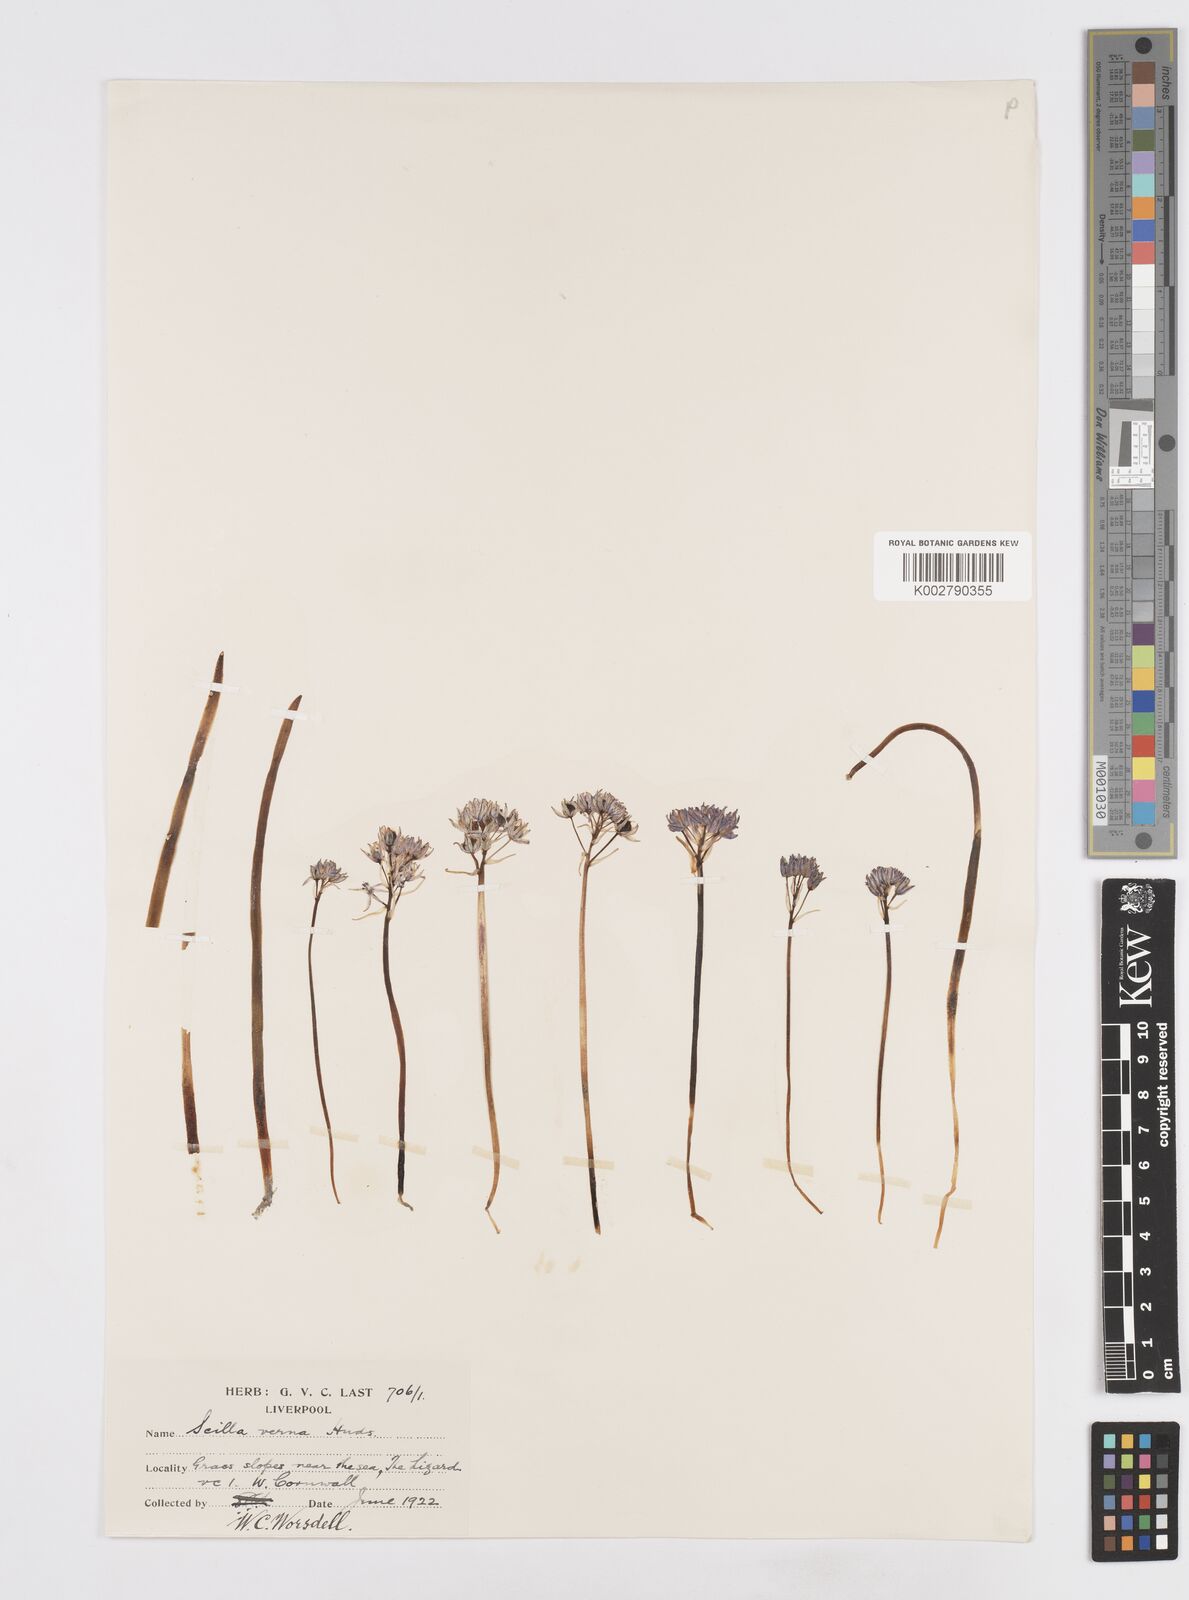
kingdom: Plantae
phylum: Tracheophyta
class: Liliopsida
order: Asparagales
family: Asparagaceae
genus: Scilla
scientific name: Scilla verna
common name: Spring squill
